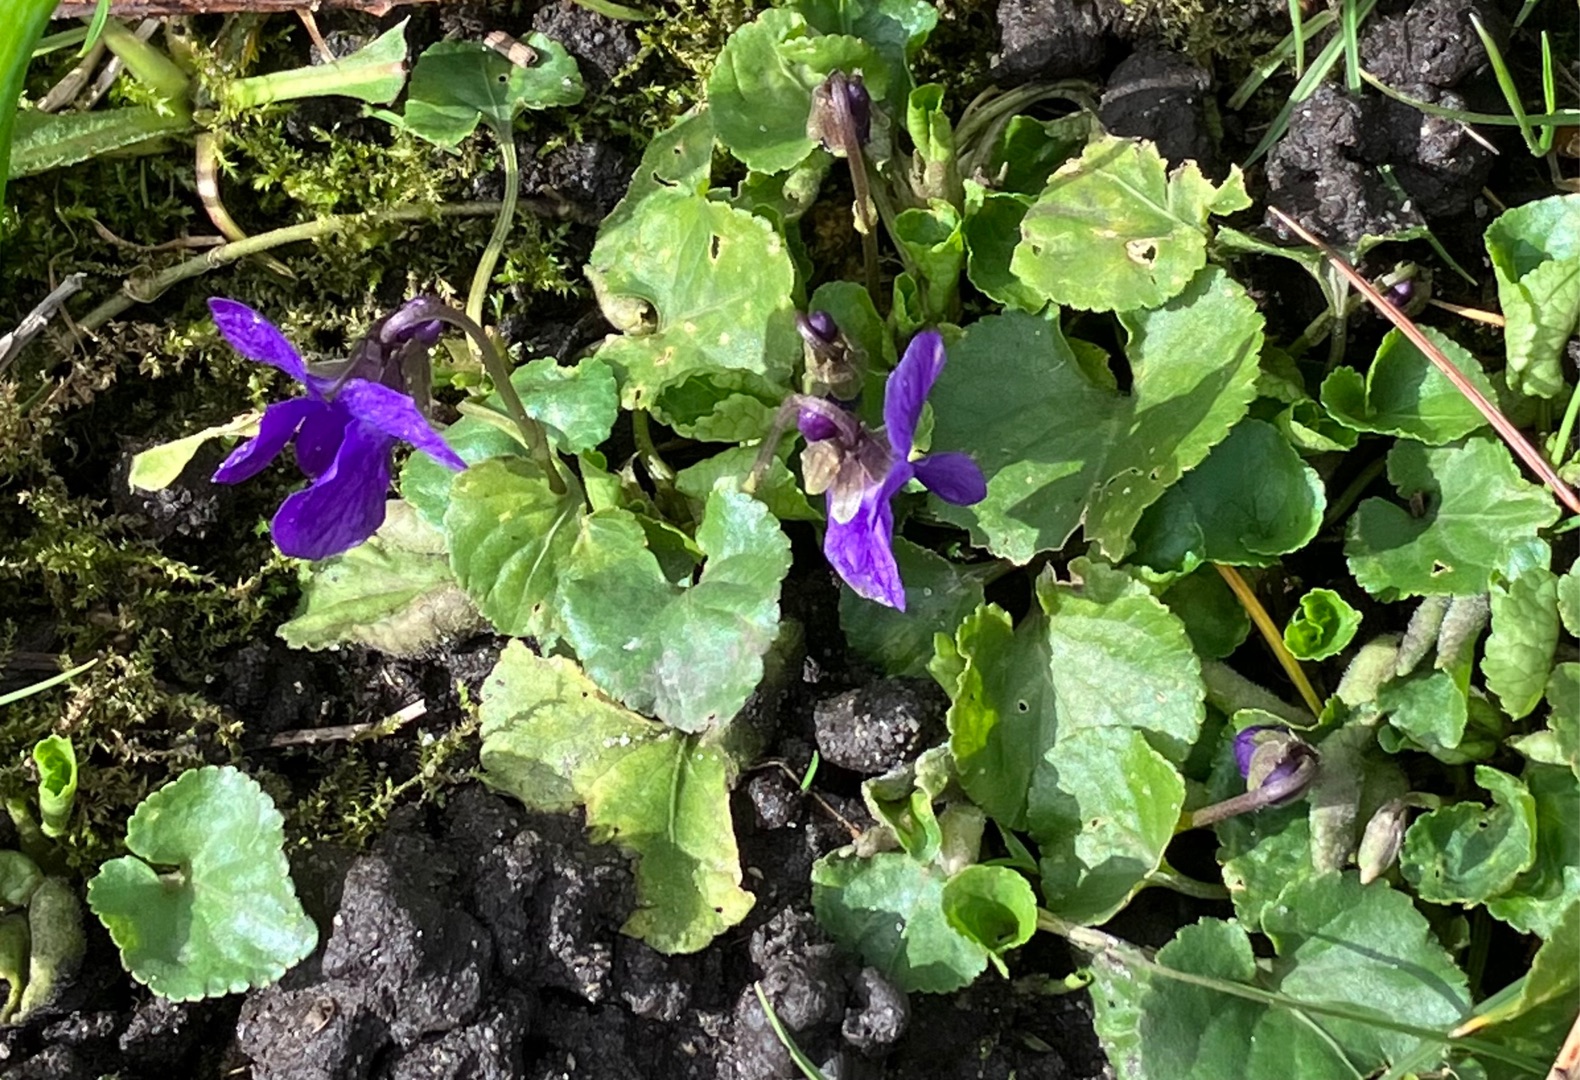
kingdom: Plantae
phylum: Tracheophyta
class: Magnoliopsida
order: Malpighiales
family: Violaceae
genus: Viola
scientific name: Viola odorata
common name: Marts-viol
